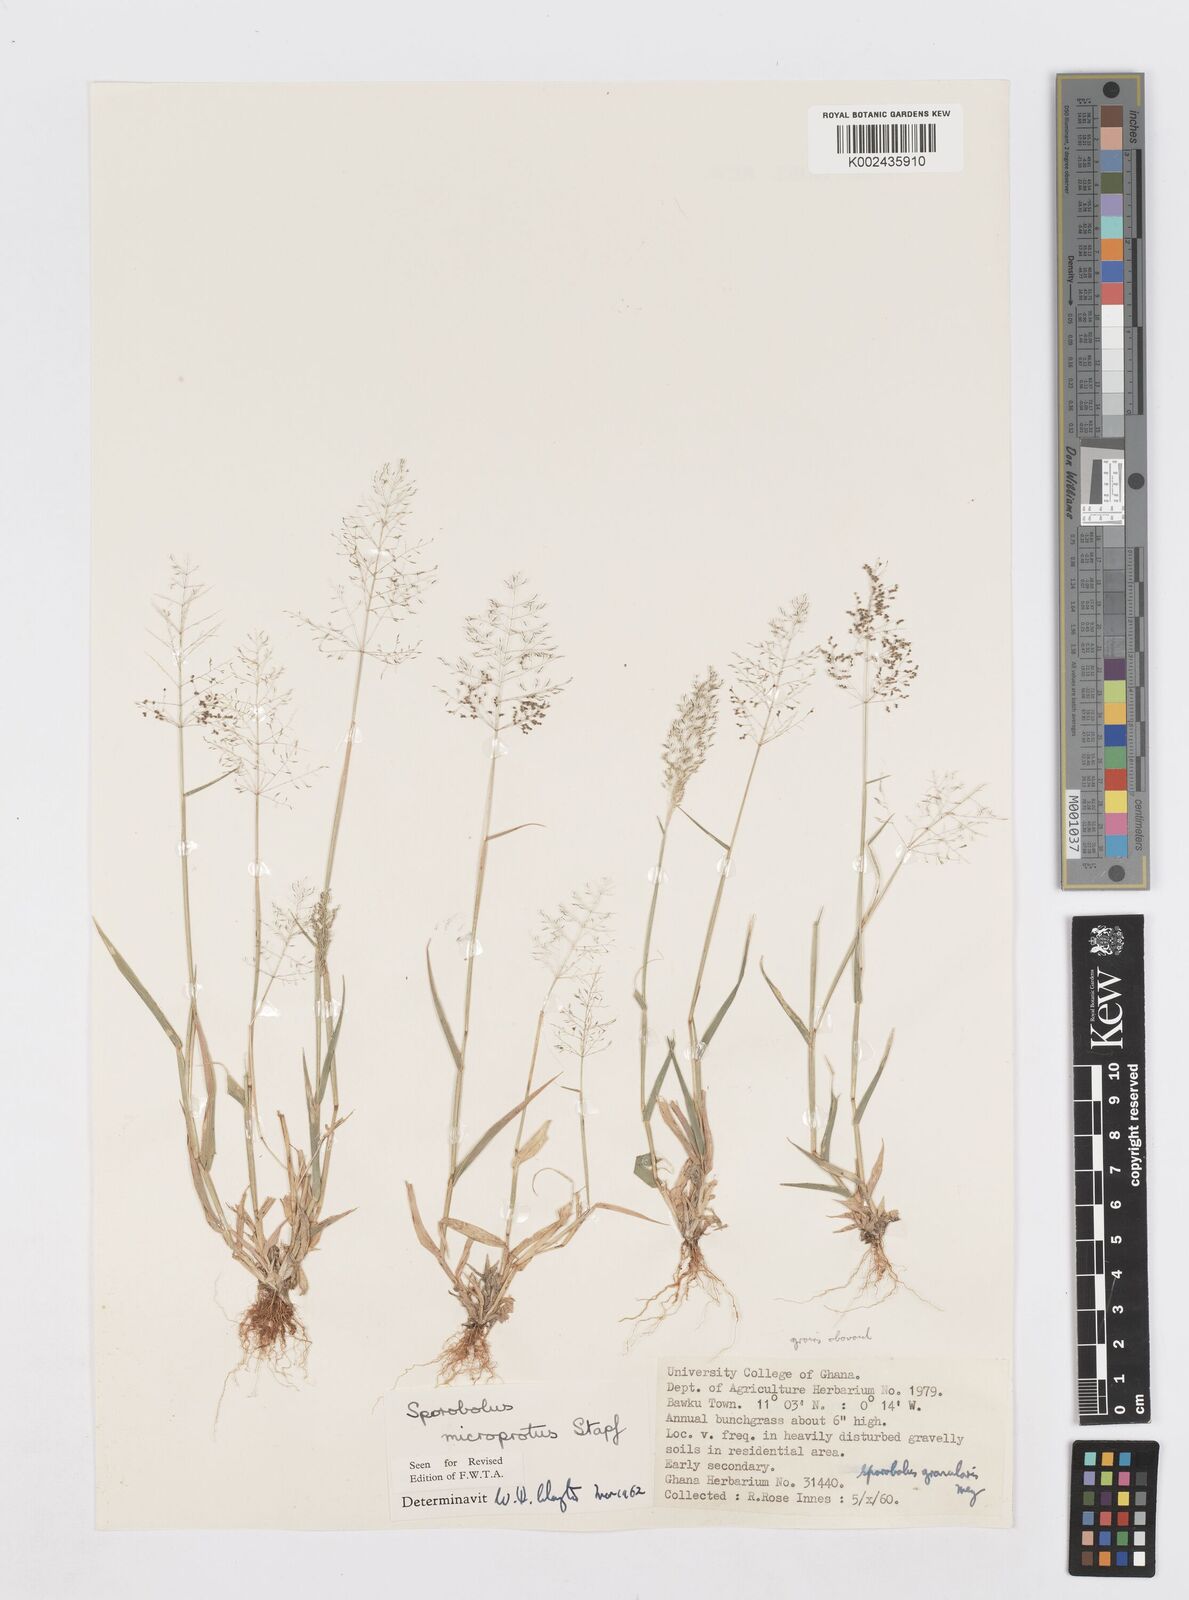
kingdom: Plantae
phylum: Tracheophyta
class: Liliopsida
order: Poales
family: Poaceae
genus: Sporobolus
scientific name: Sporobolus microprotus
